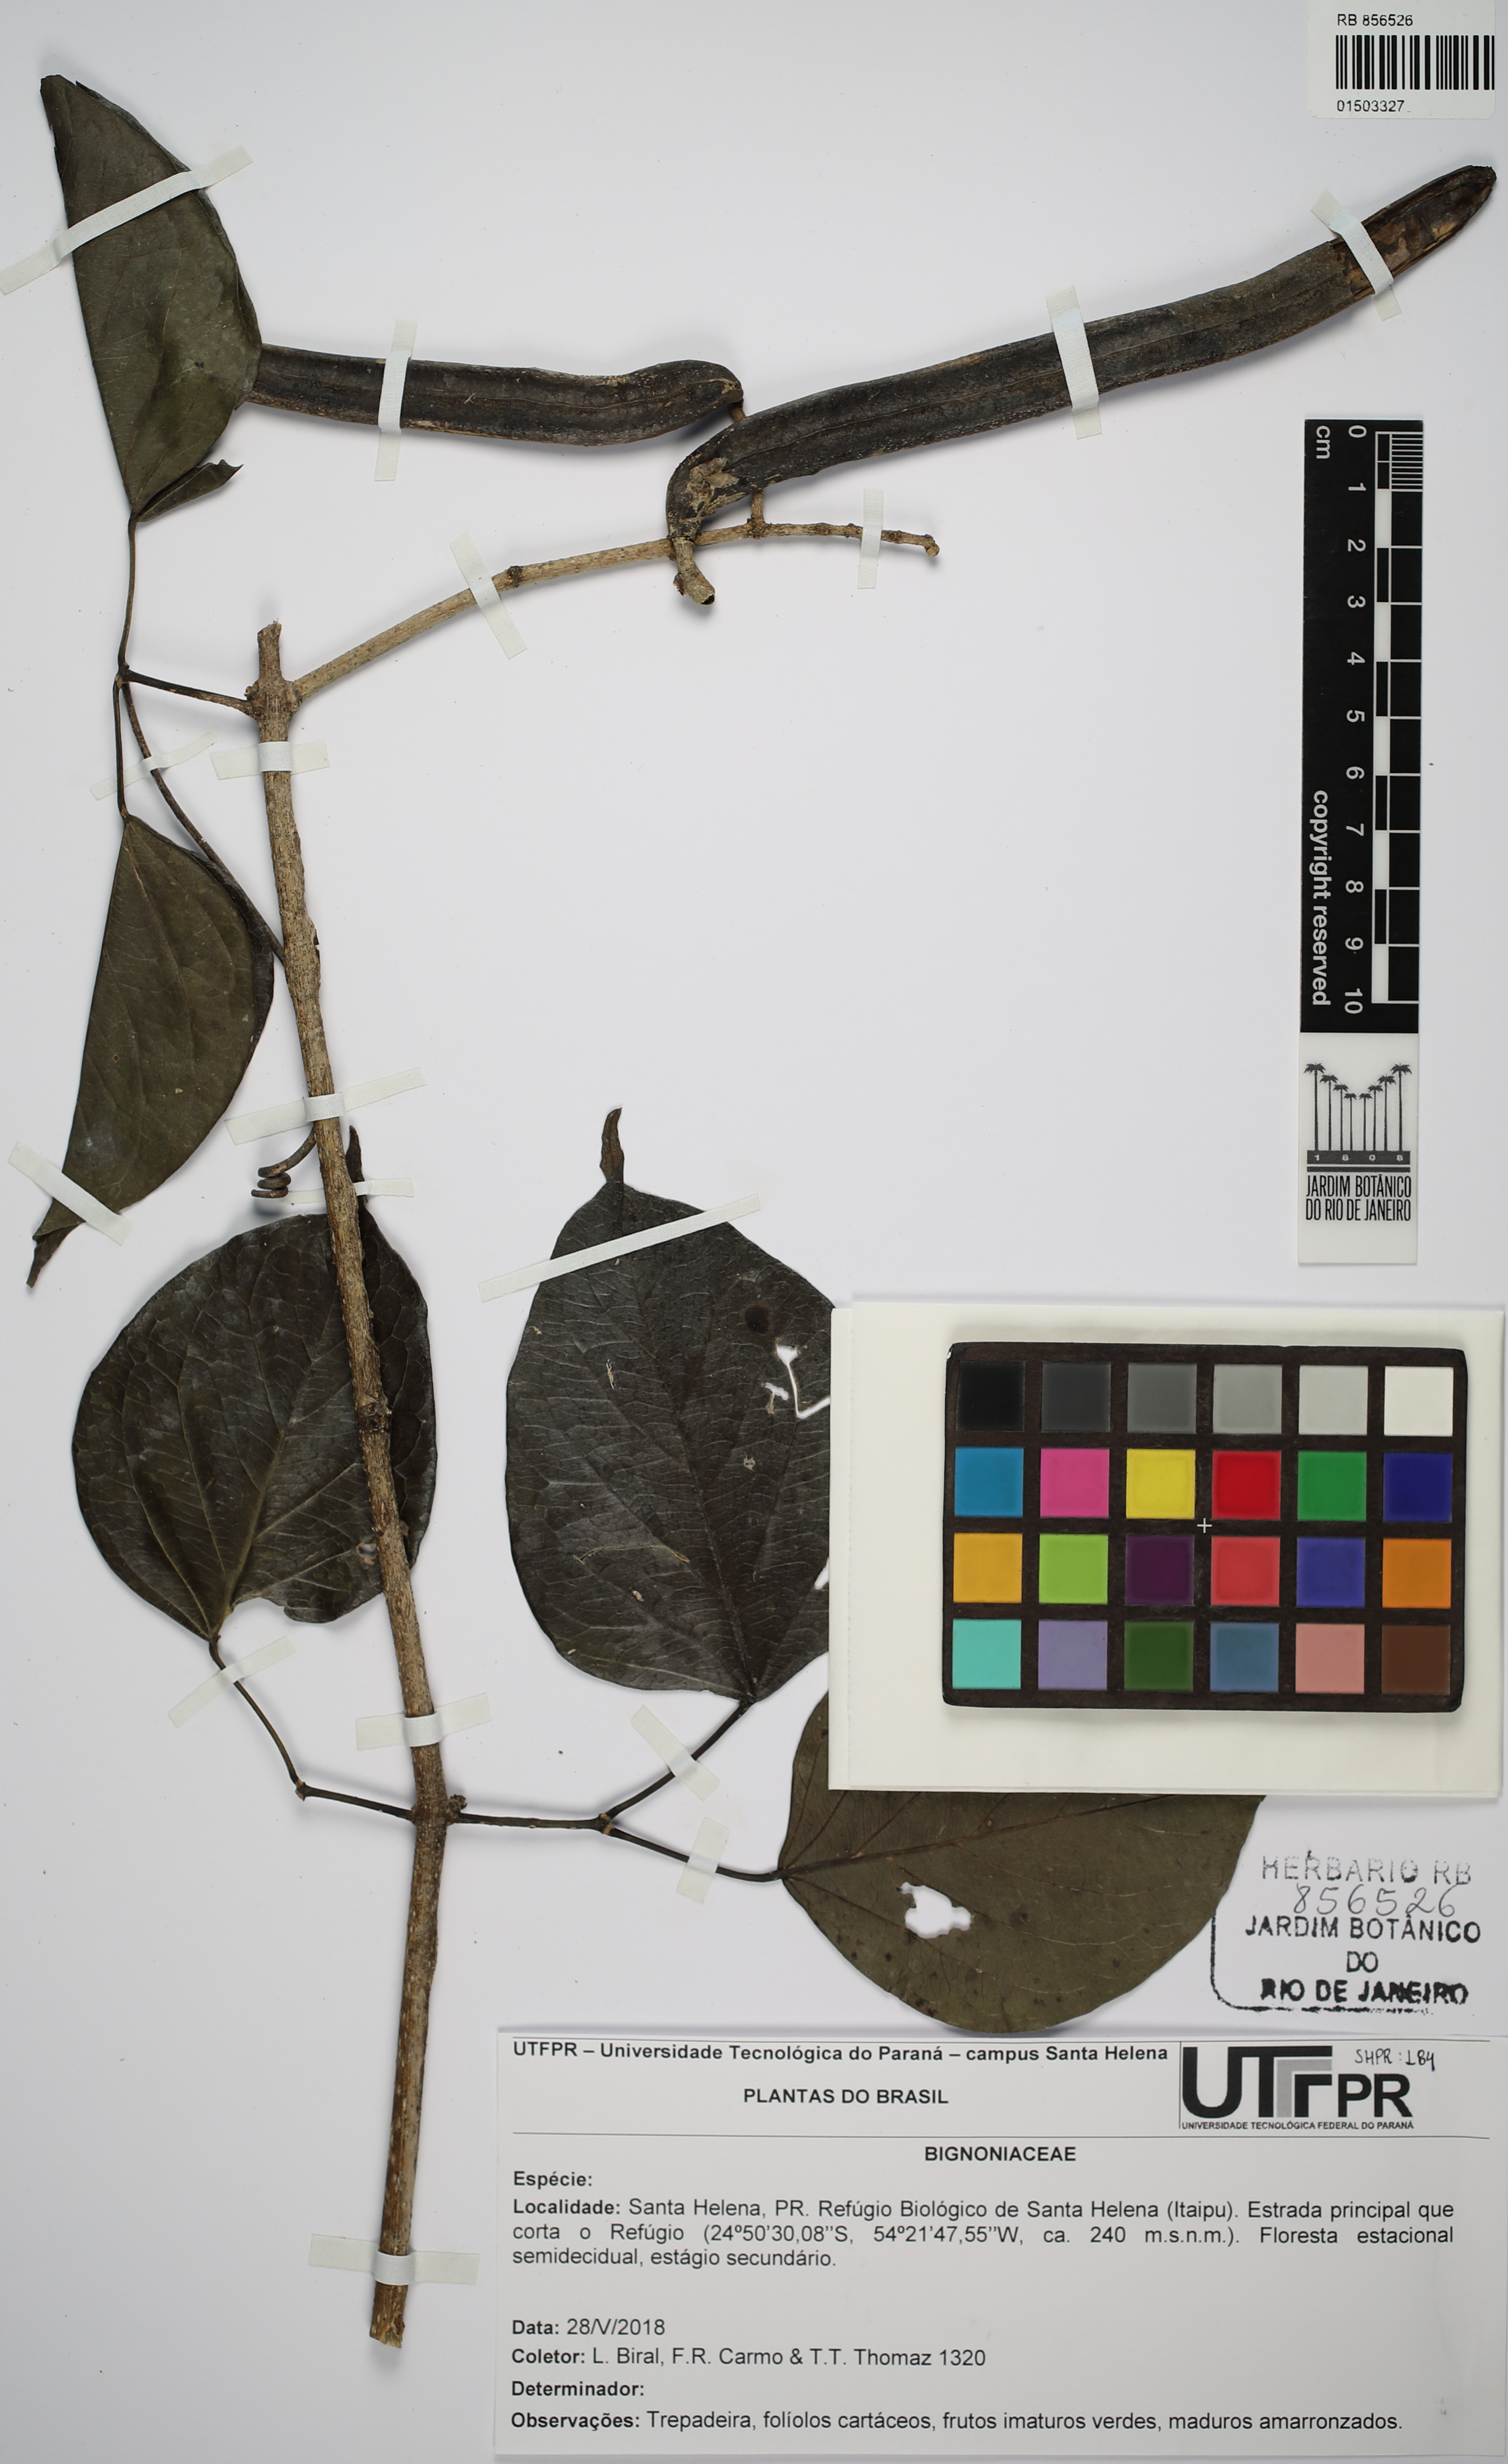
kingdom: Plantae
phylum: Tracheophyta
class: Magnoliopsida
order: Lamiales
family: Bignoniaceae
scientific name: Bignoniaceae
